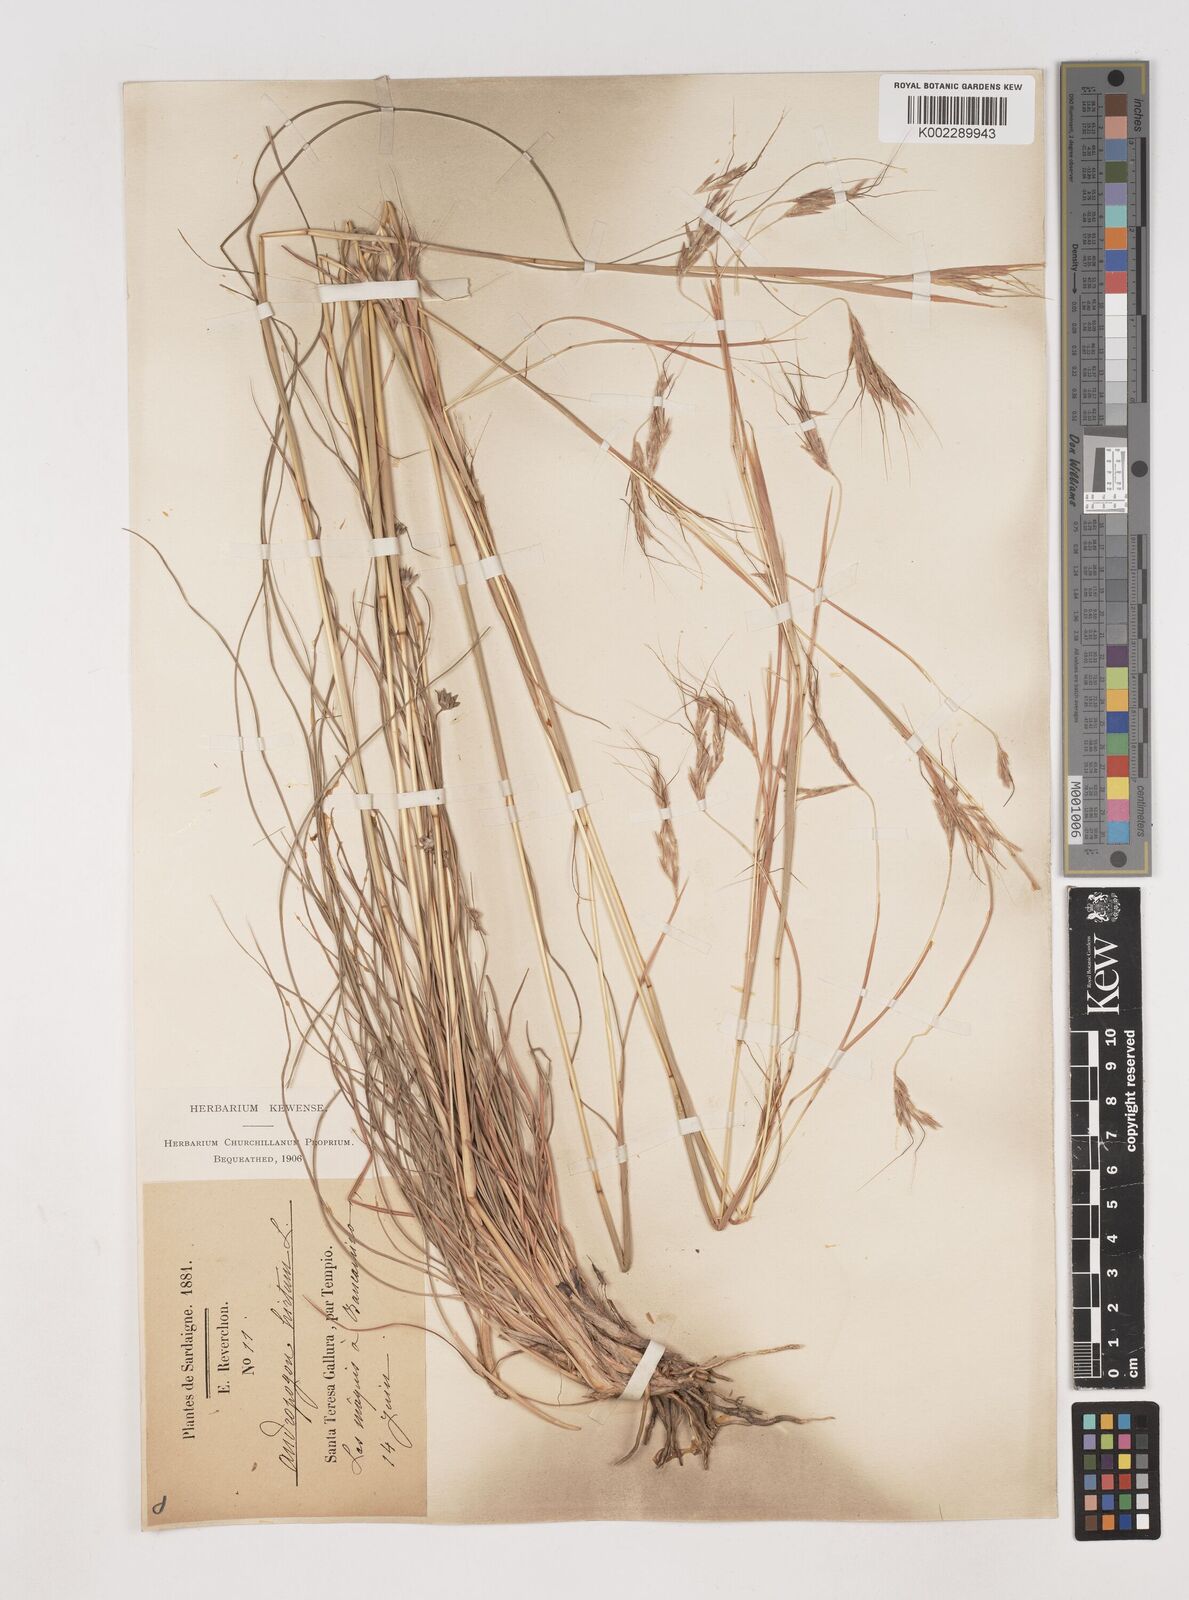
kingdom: Plantae
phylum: Tracheophyta
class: Liliopsida
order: Poales
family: Poaceae
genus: Hyparrhenia
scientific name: Hyparrhenia hirta
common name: Thatching grass
